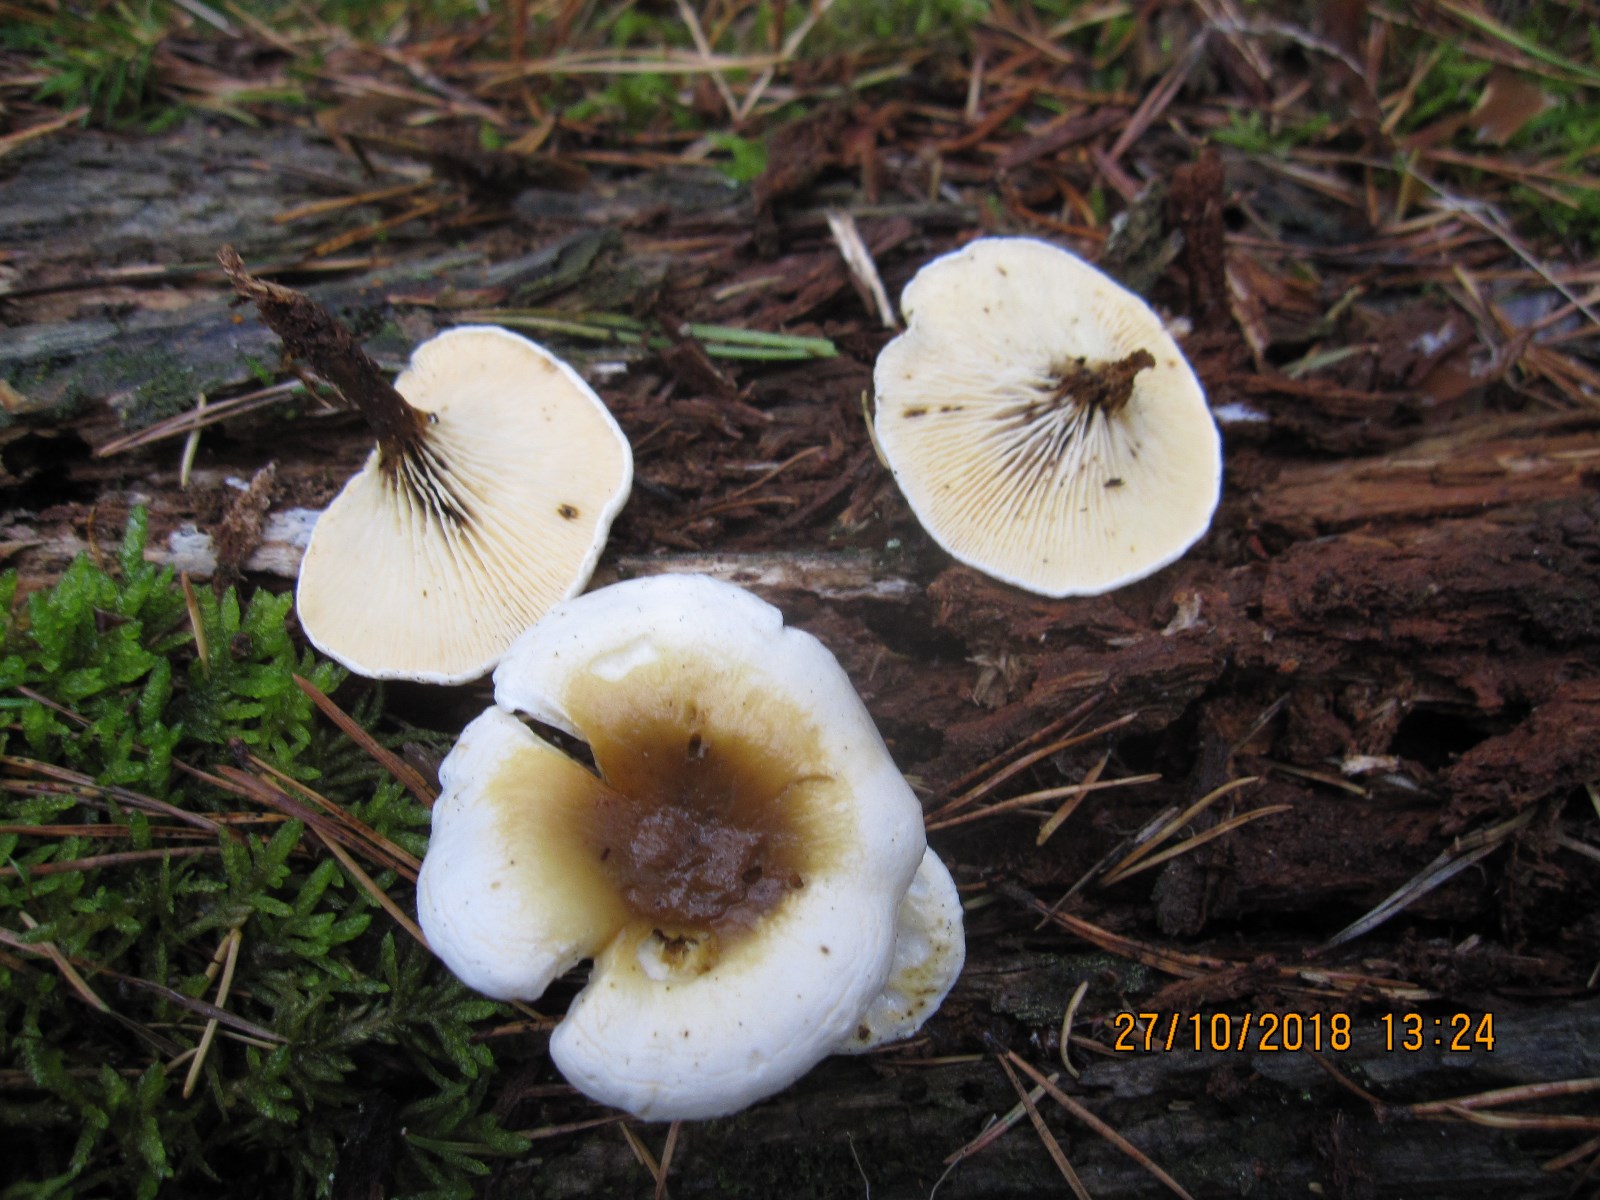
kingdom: Fungi
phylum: Basidiomycota
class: Agaricomycetes
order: Boletales
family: Hygrophoropsidaceae
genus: Hygrophoropsis
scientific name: Hygrophoropsis pallida
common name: bleg orangekantarel
